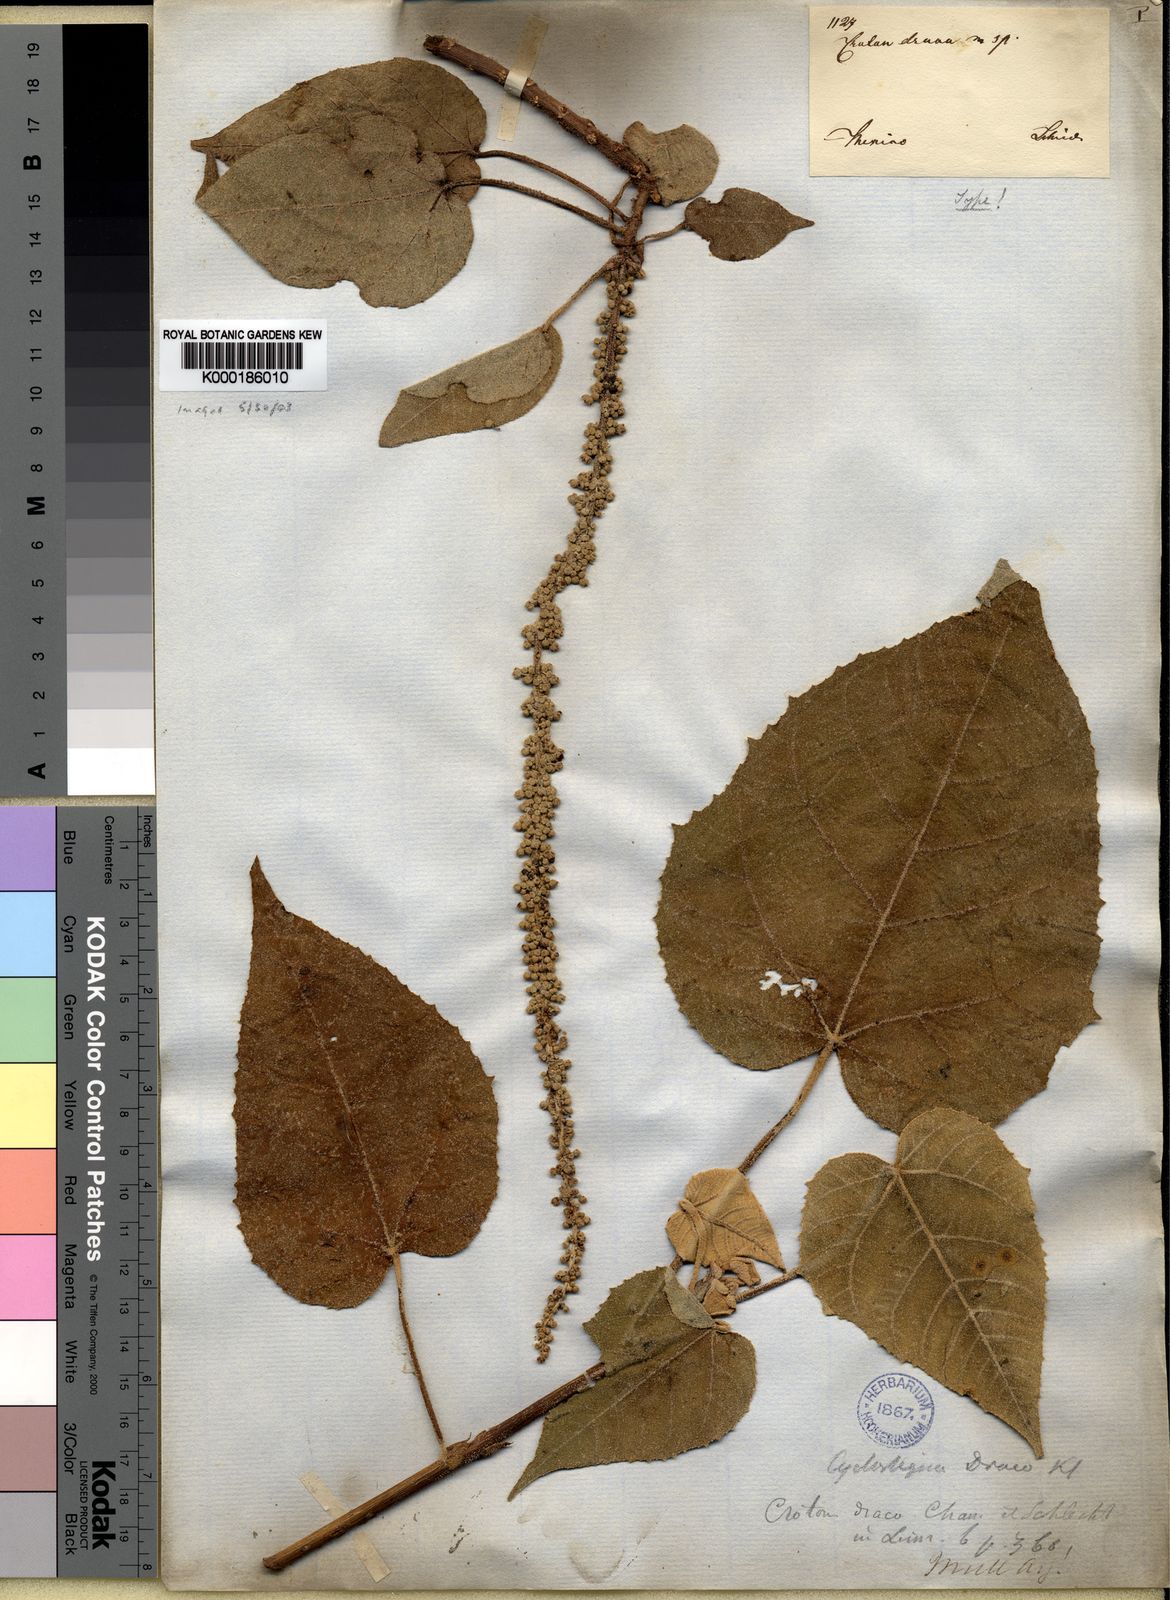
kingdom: Plantae
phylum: Tracheophyta
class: Magnoliopsida
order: Malpighiales
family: Euphorbiaceae
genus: Croton
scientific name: Croton draco
